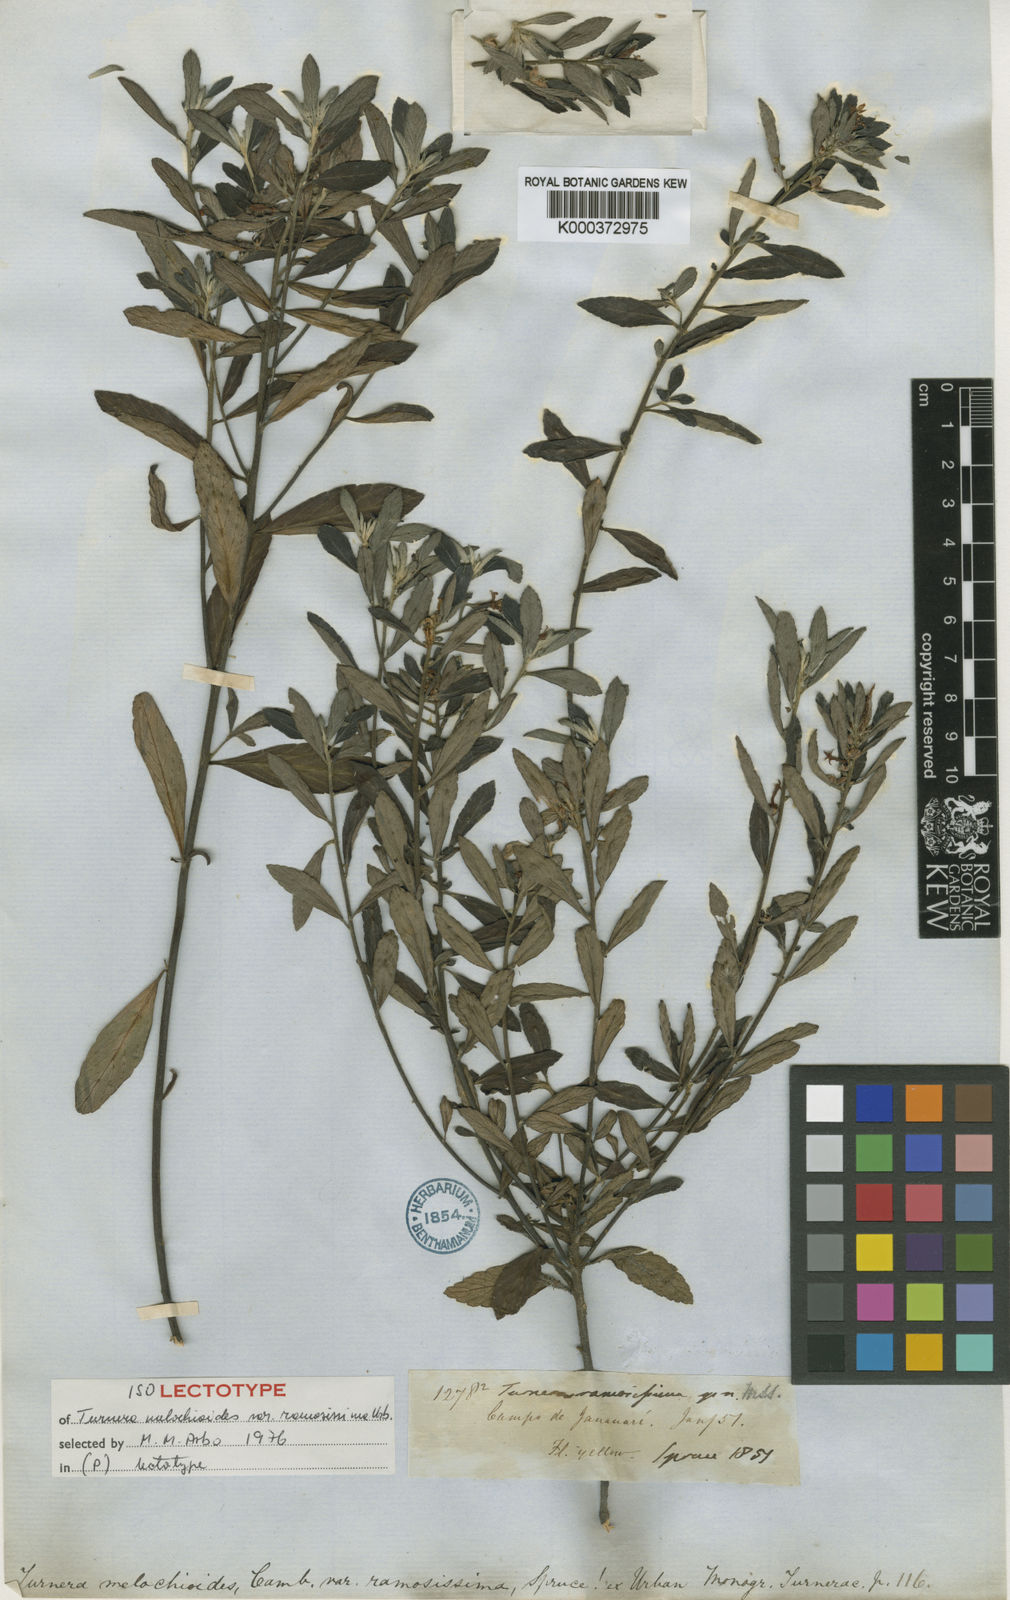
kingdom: Plantae
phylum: Tracheophyta
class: Magnoliopsida
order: Malpighiales
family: Turneraceae
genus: Turnera
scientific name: Turnera melochia
